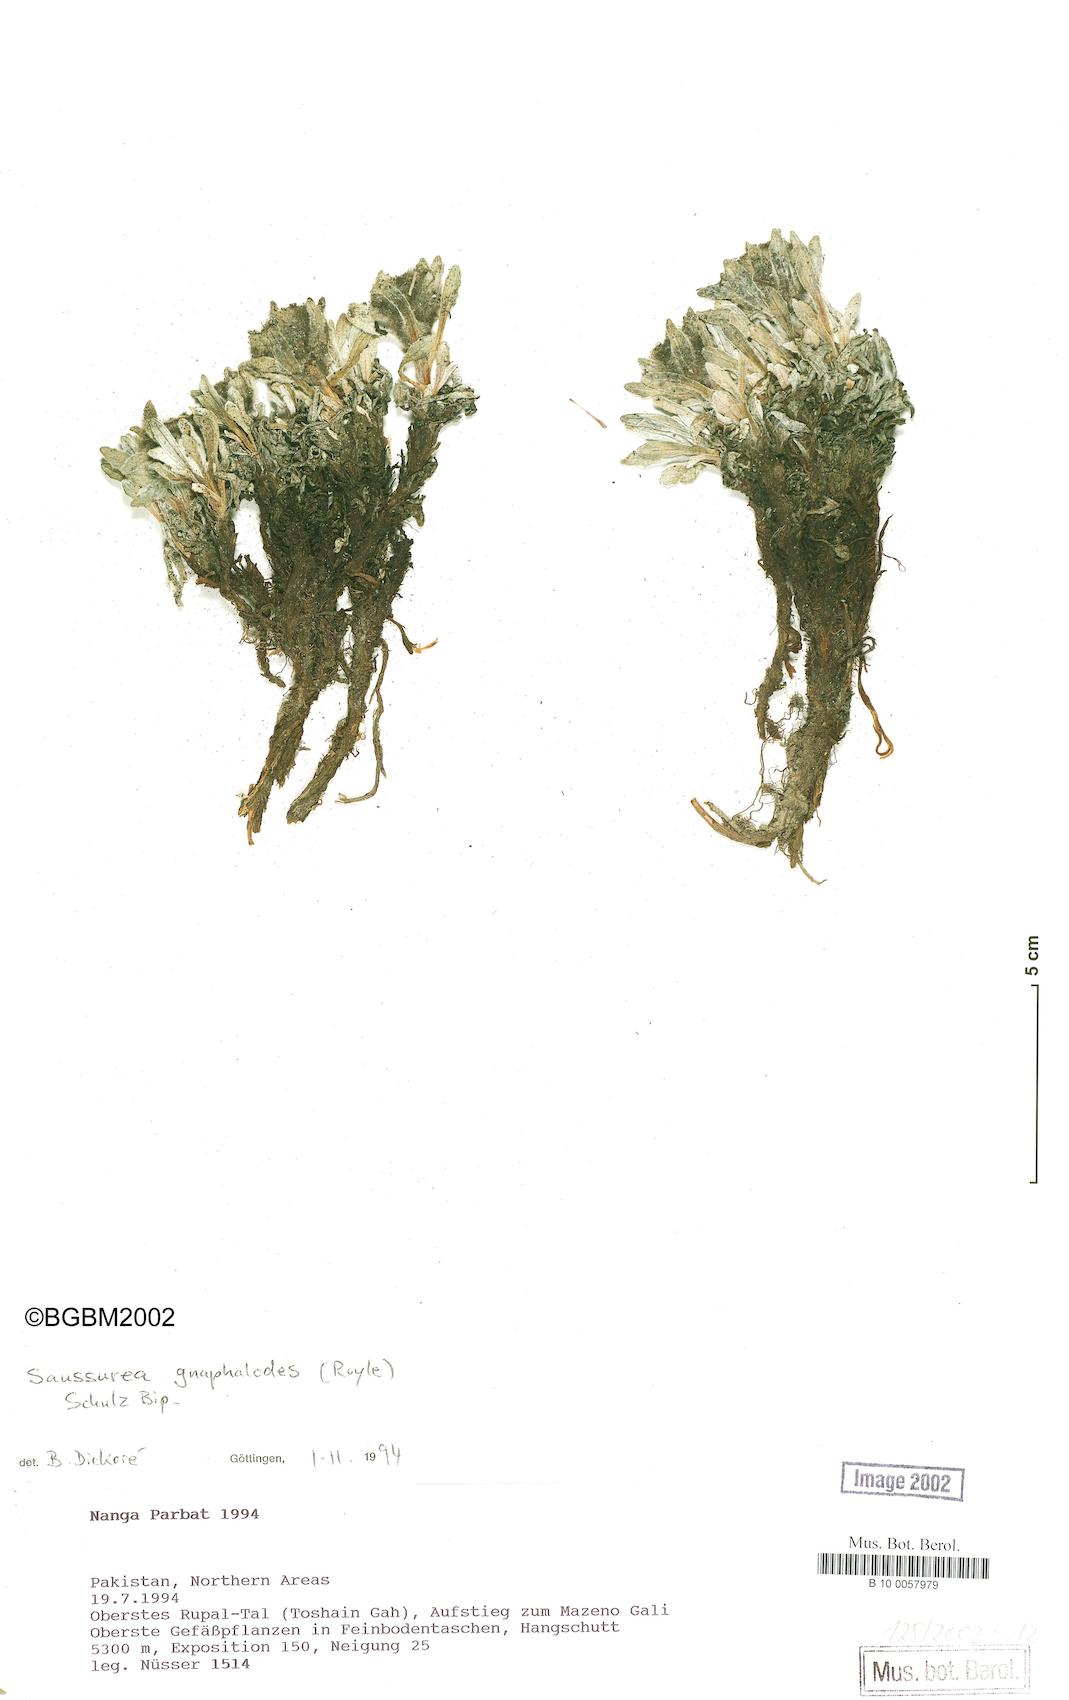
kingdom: Plantae
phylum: Tracheophyta
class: Magnoliopsida
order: Asterales
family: Asteraceae
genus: Saussurea
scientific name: Saussurea gnaphalodes
